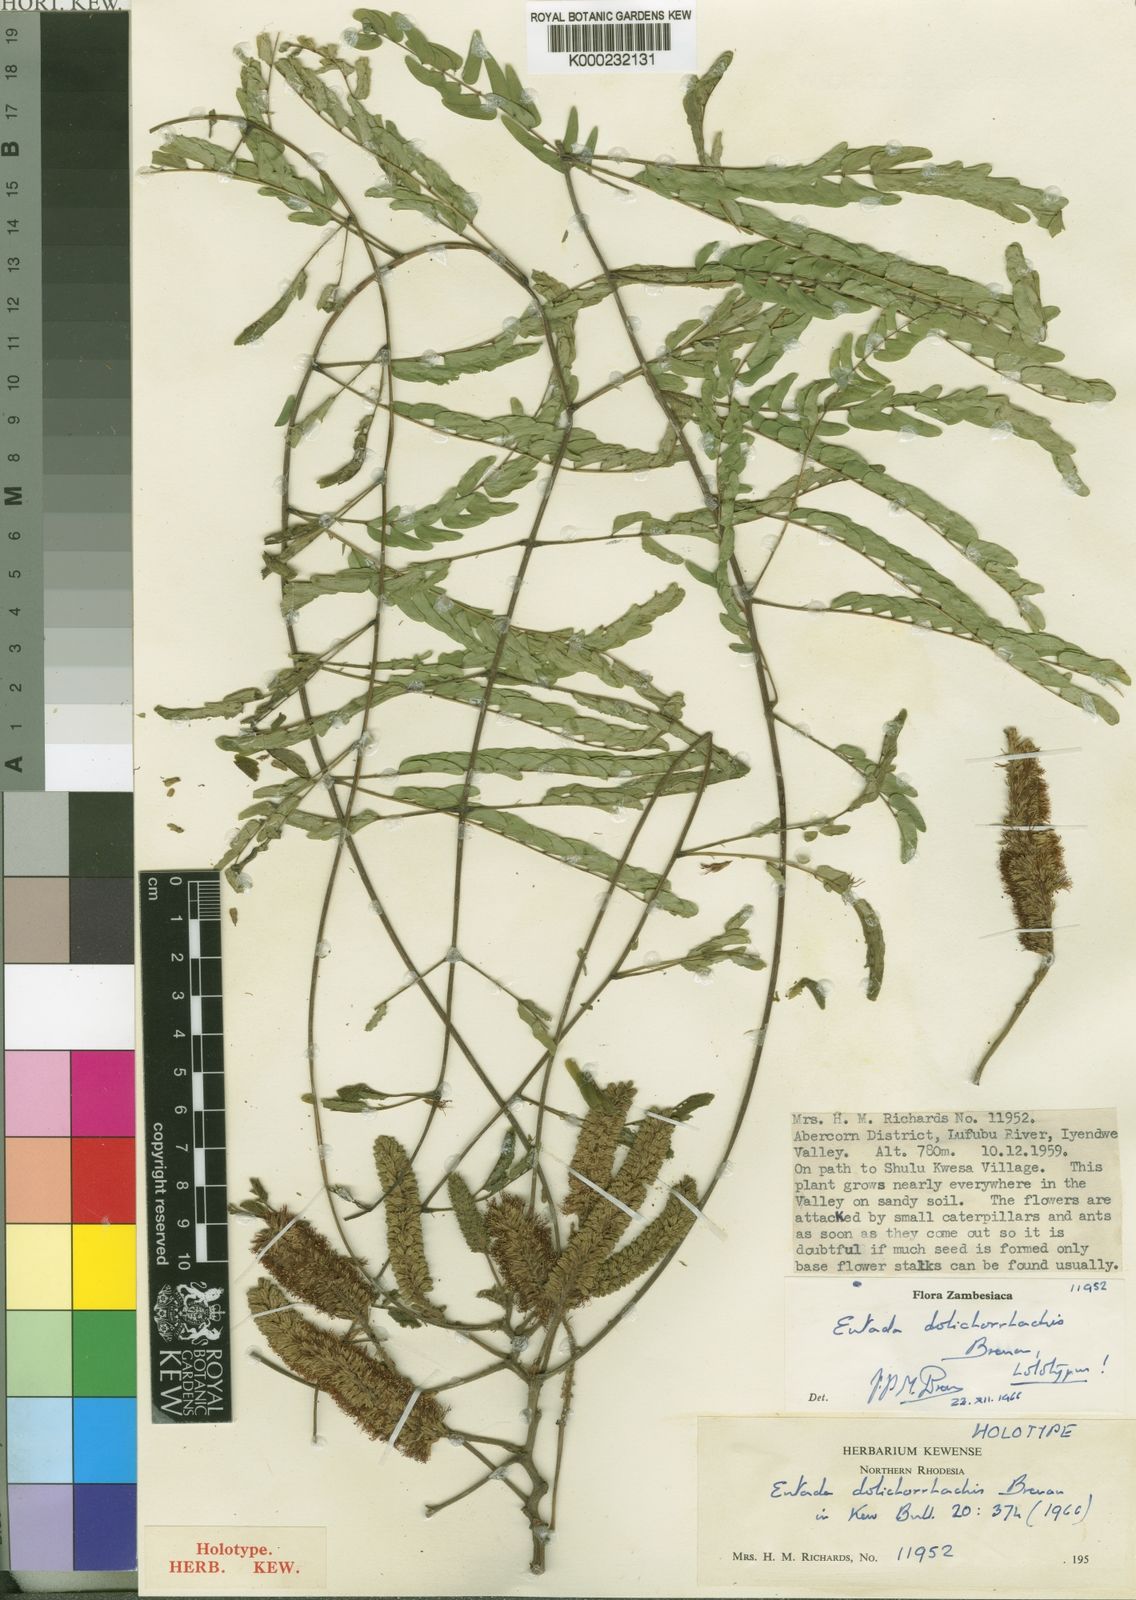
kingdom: Plantae
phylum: Tracheophyta
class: Magnoliopsida
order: Fabales
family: Fabaceae
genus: Entada
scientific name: Entada
